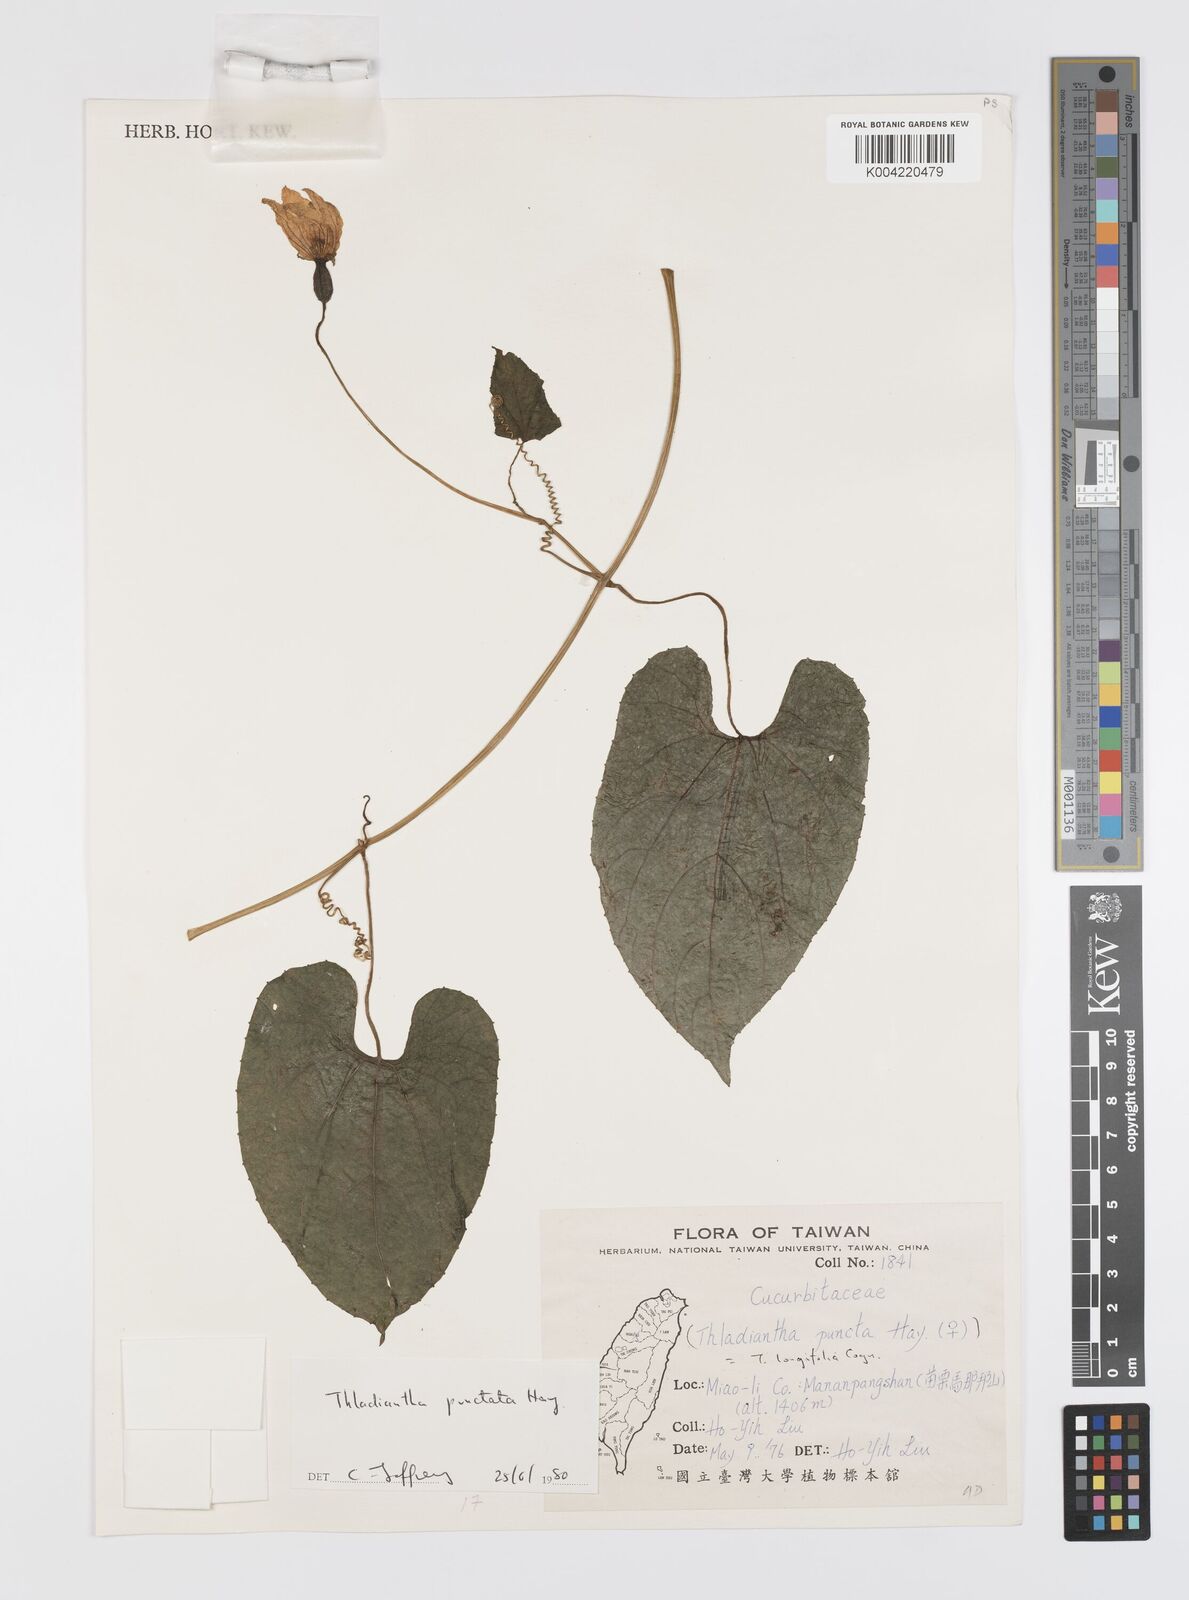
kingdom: Plantae
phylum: Tracheophyta
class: Magnoliopsida
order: Cucurbitales
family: Cucurbitaceae
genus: Thladiantha
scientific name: Thladiantha punctata
